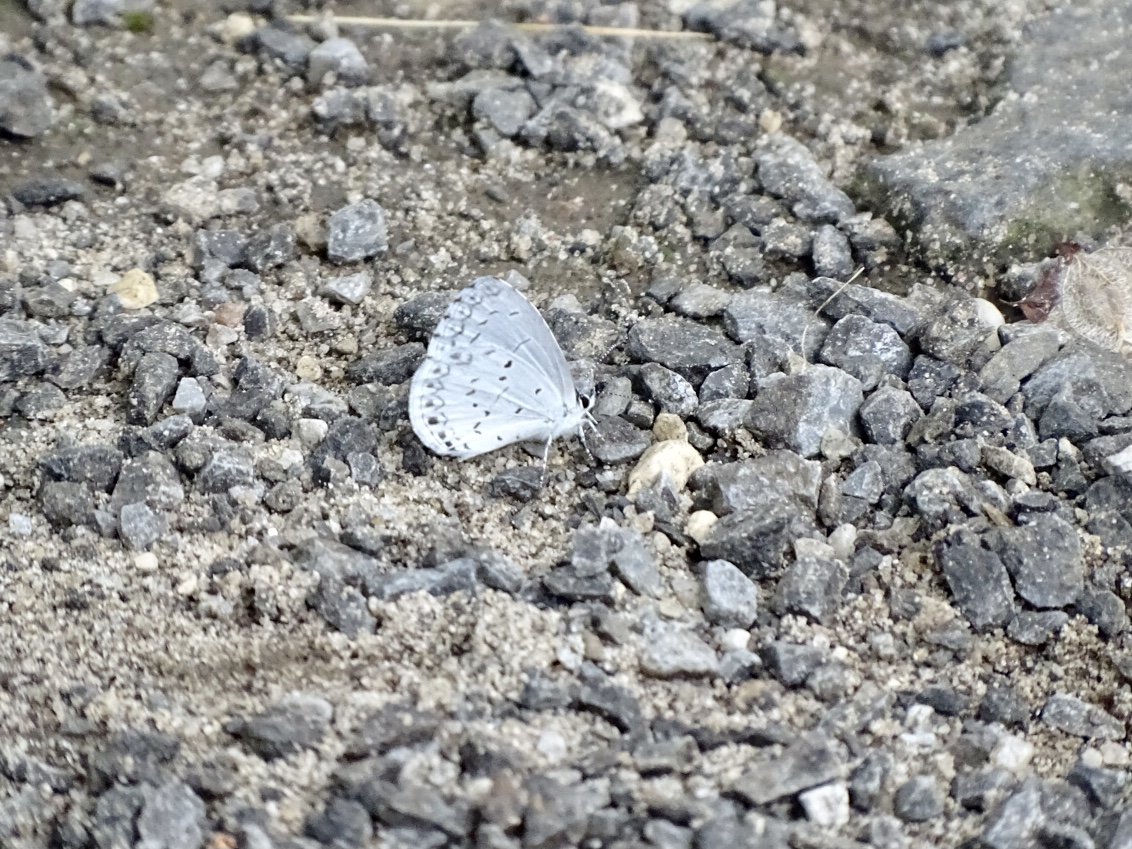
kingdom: Animalia
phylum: Arthropoda
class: Insecta
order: Lepidoptera
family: Lycaenidae
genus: Cyaniris
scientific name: Cyaniris neglecta
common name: Summer Azure
